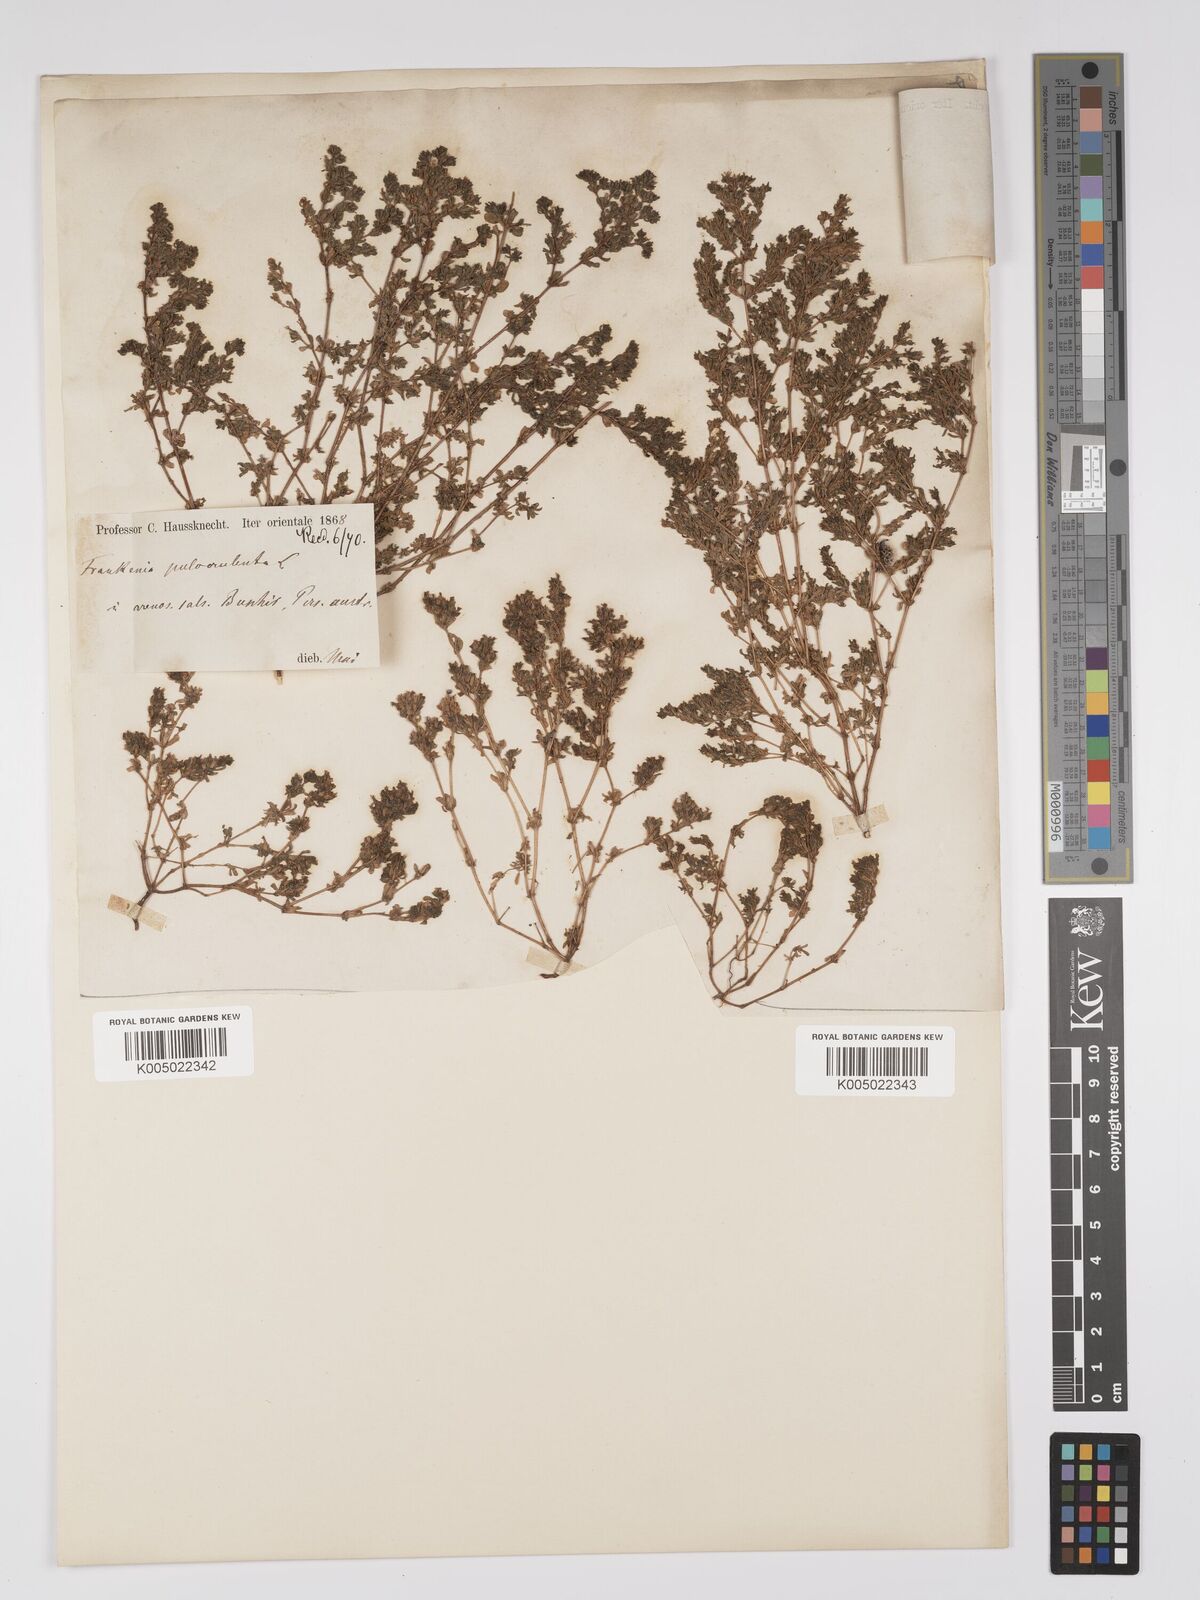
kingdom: Plantae
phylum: Tracheophyta
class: Magnoliopsida
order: Caryophyllales
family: Frankeniaceae
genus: Frankenia
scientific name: Frankenia pulverulenta
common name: European seaheath
